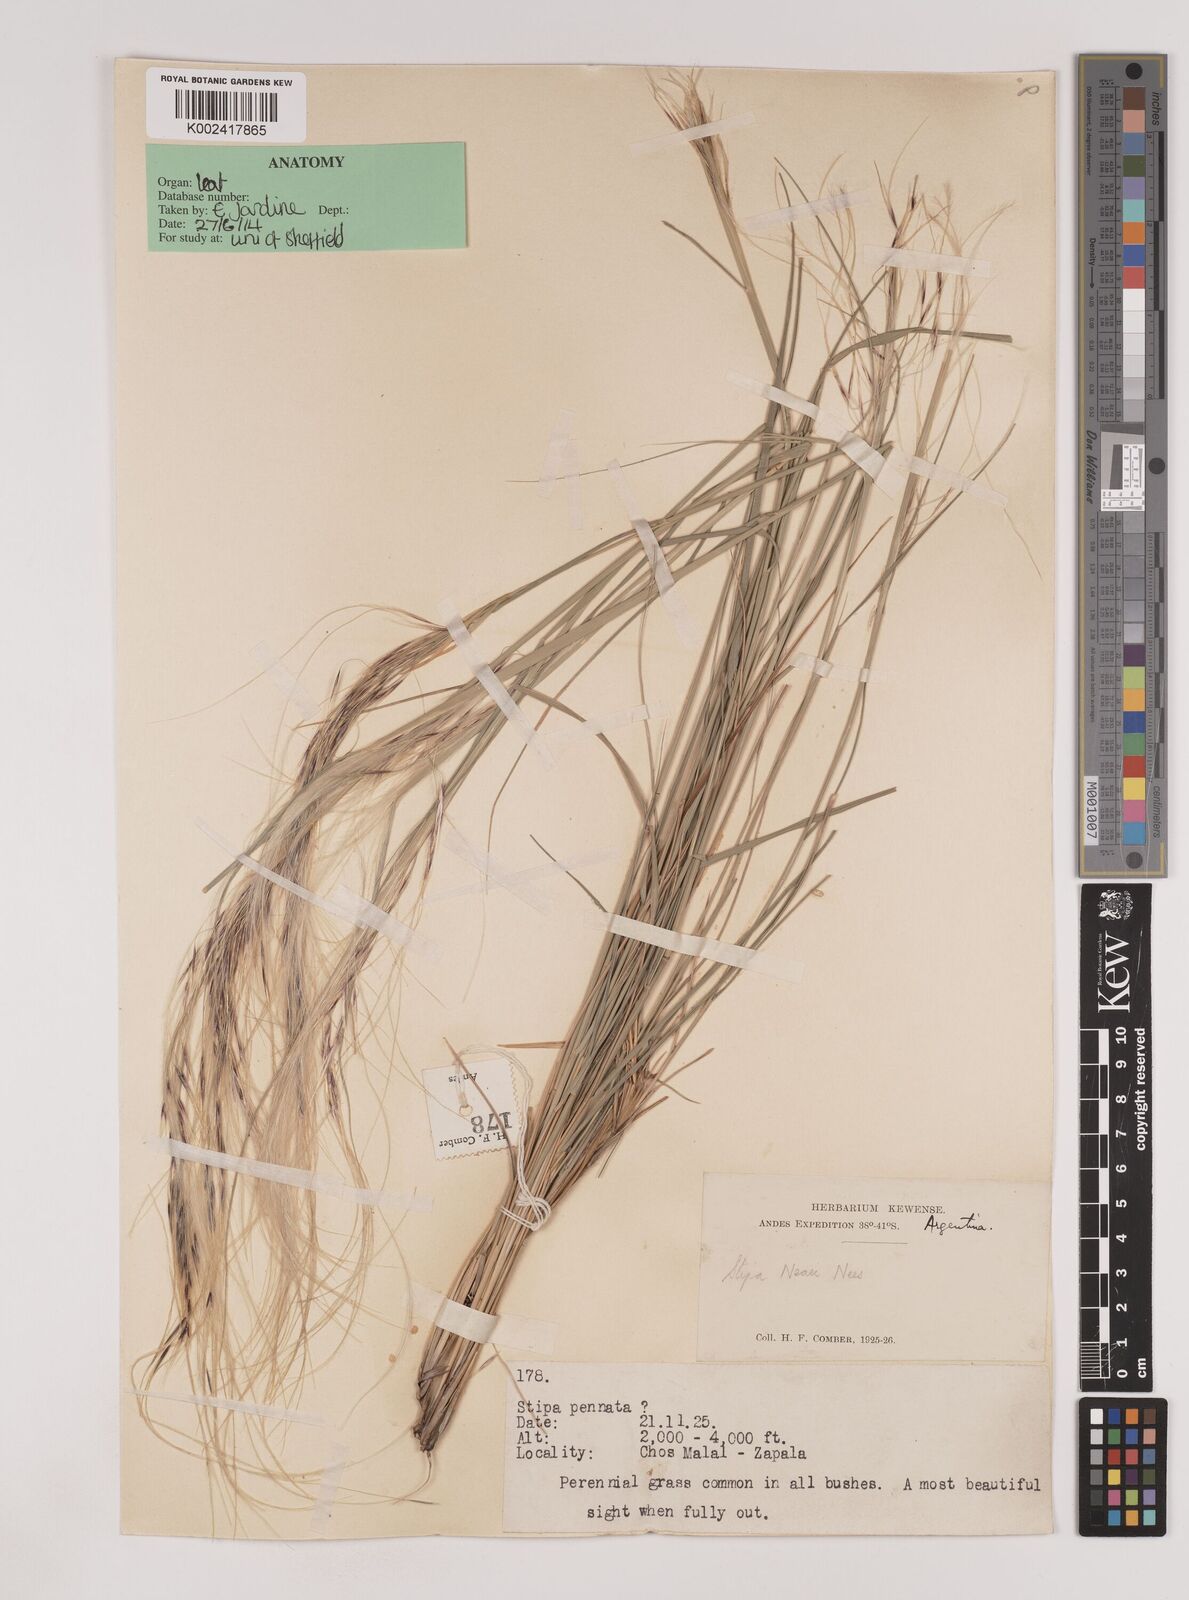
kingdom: Plantae
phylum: Tracheophyta
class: Liliopsida
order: Poales
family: Poaceae
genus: Nassella
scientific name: Nassella neesiana
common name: American needle-grass
